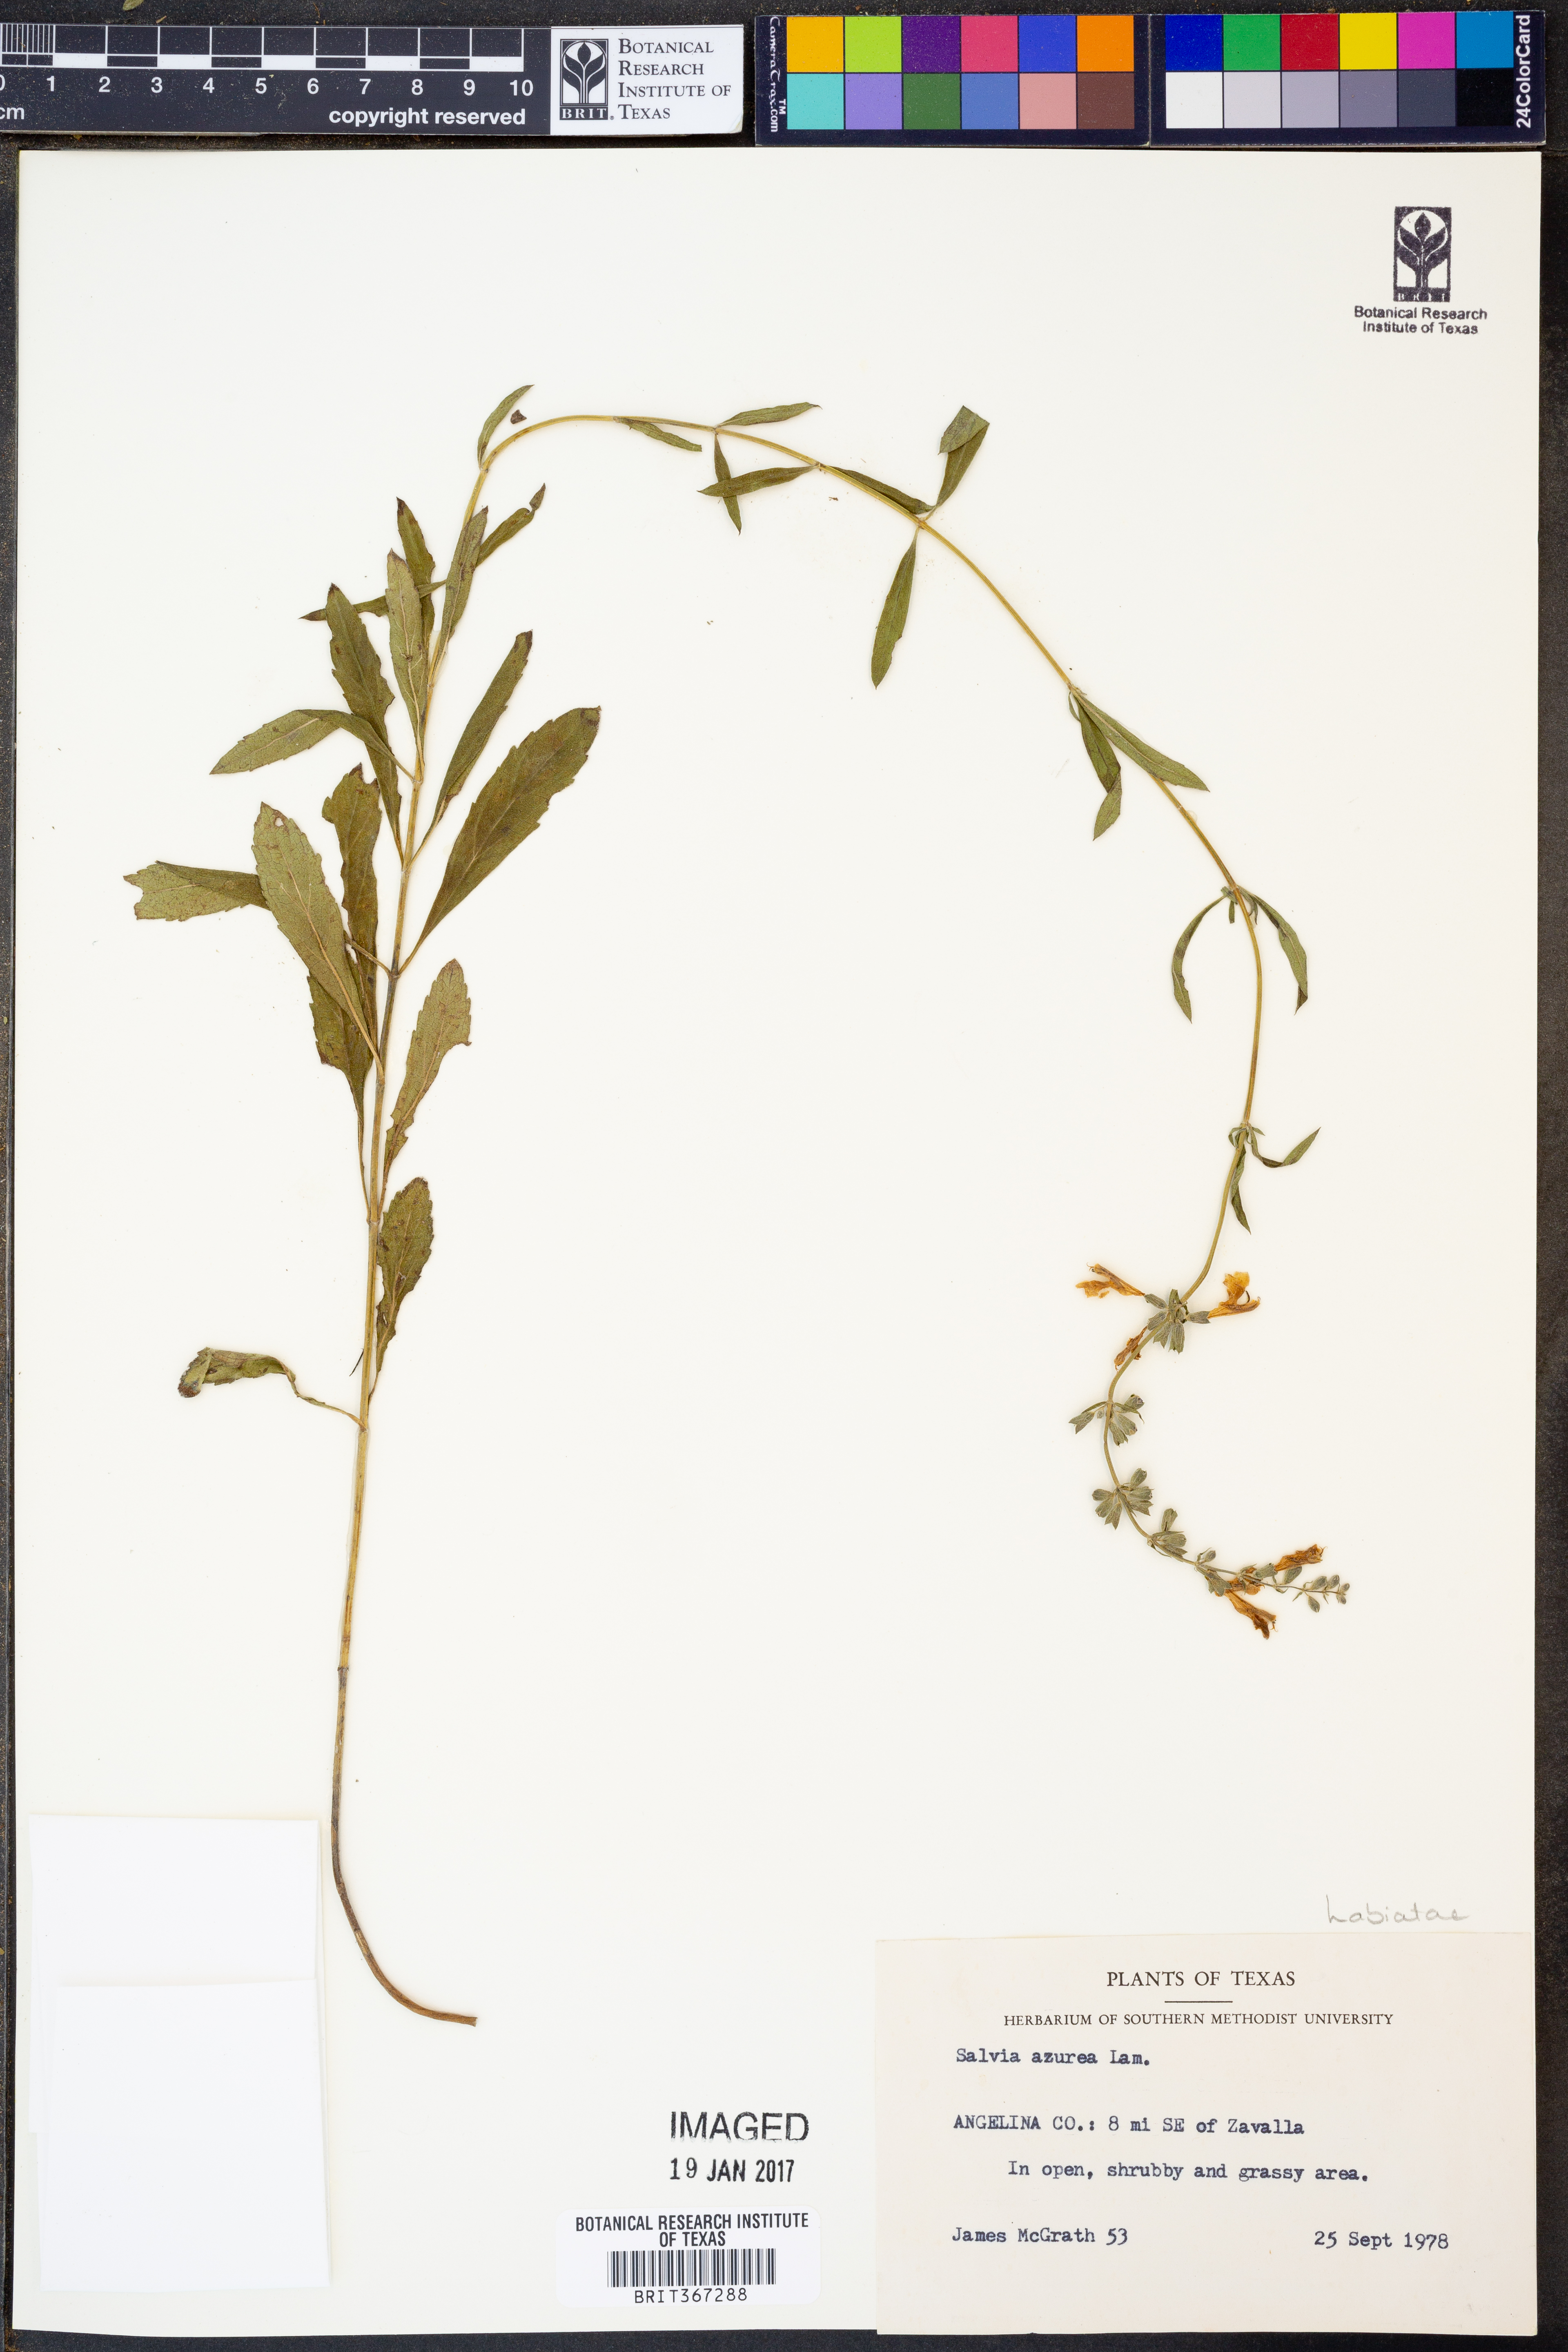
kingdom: Plantae
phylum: Tracheophyta
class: Magnoliopsida
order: Lamiales
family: Lamiaceae
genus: Salvia
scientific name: Salvia azurea
